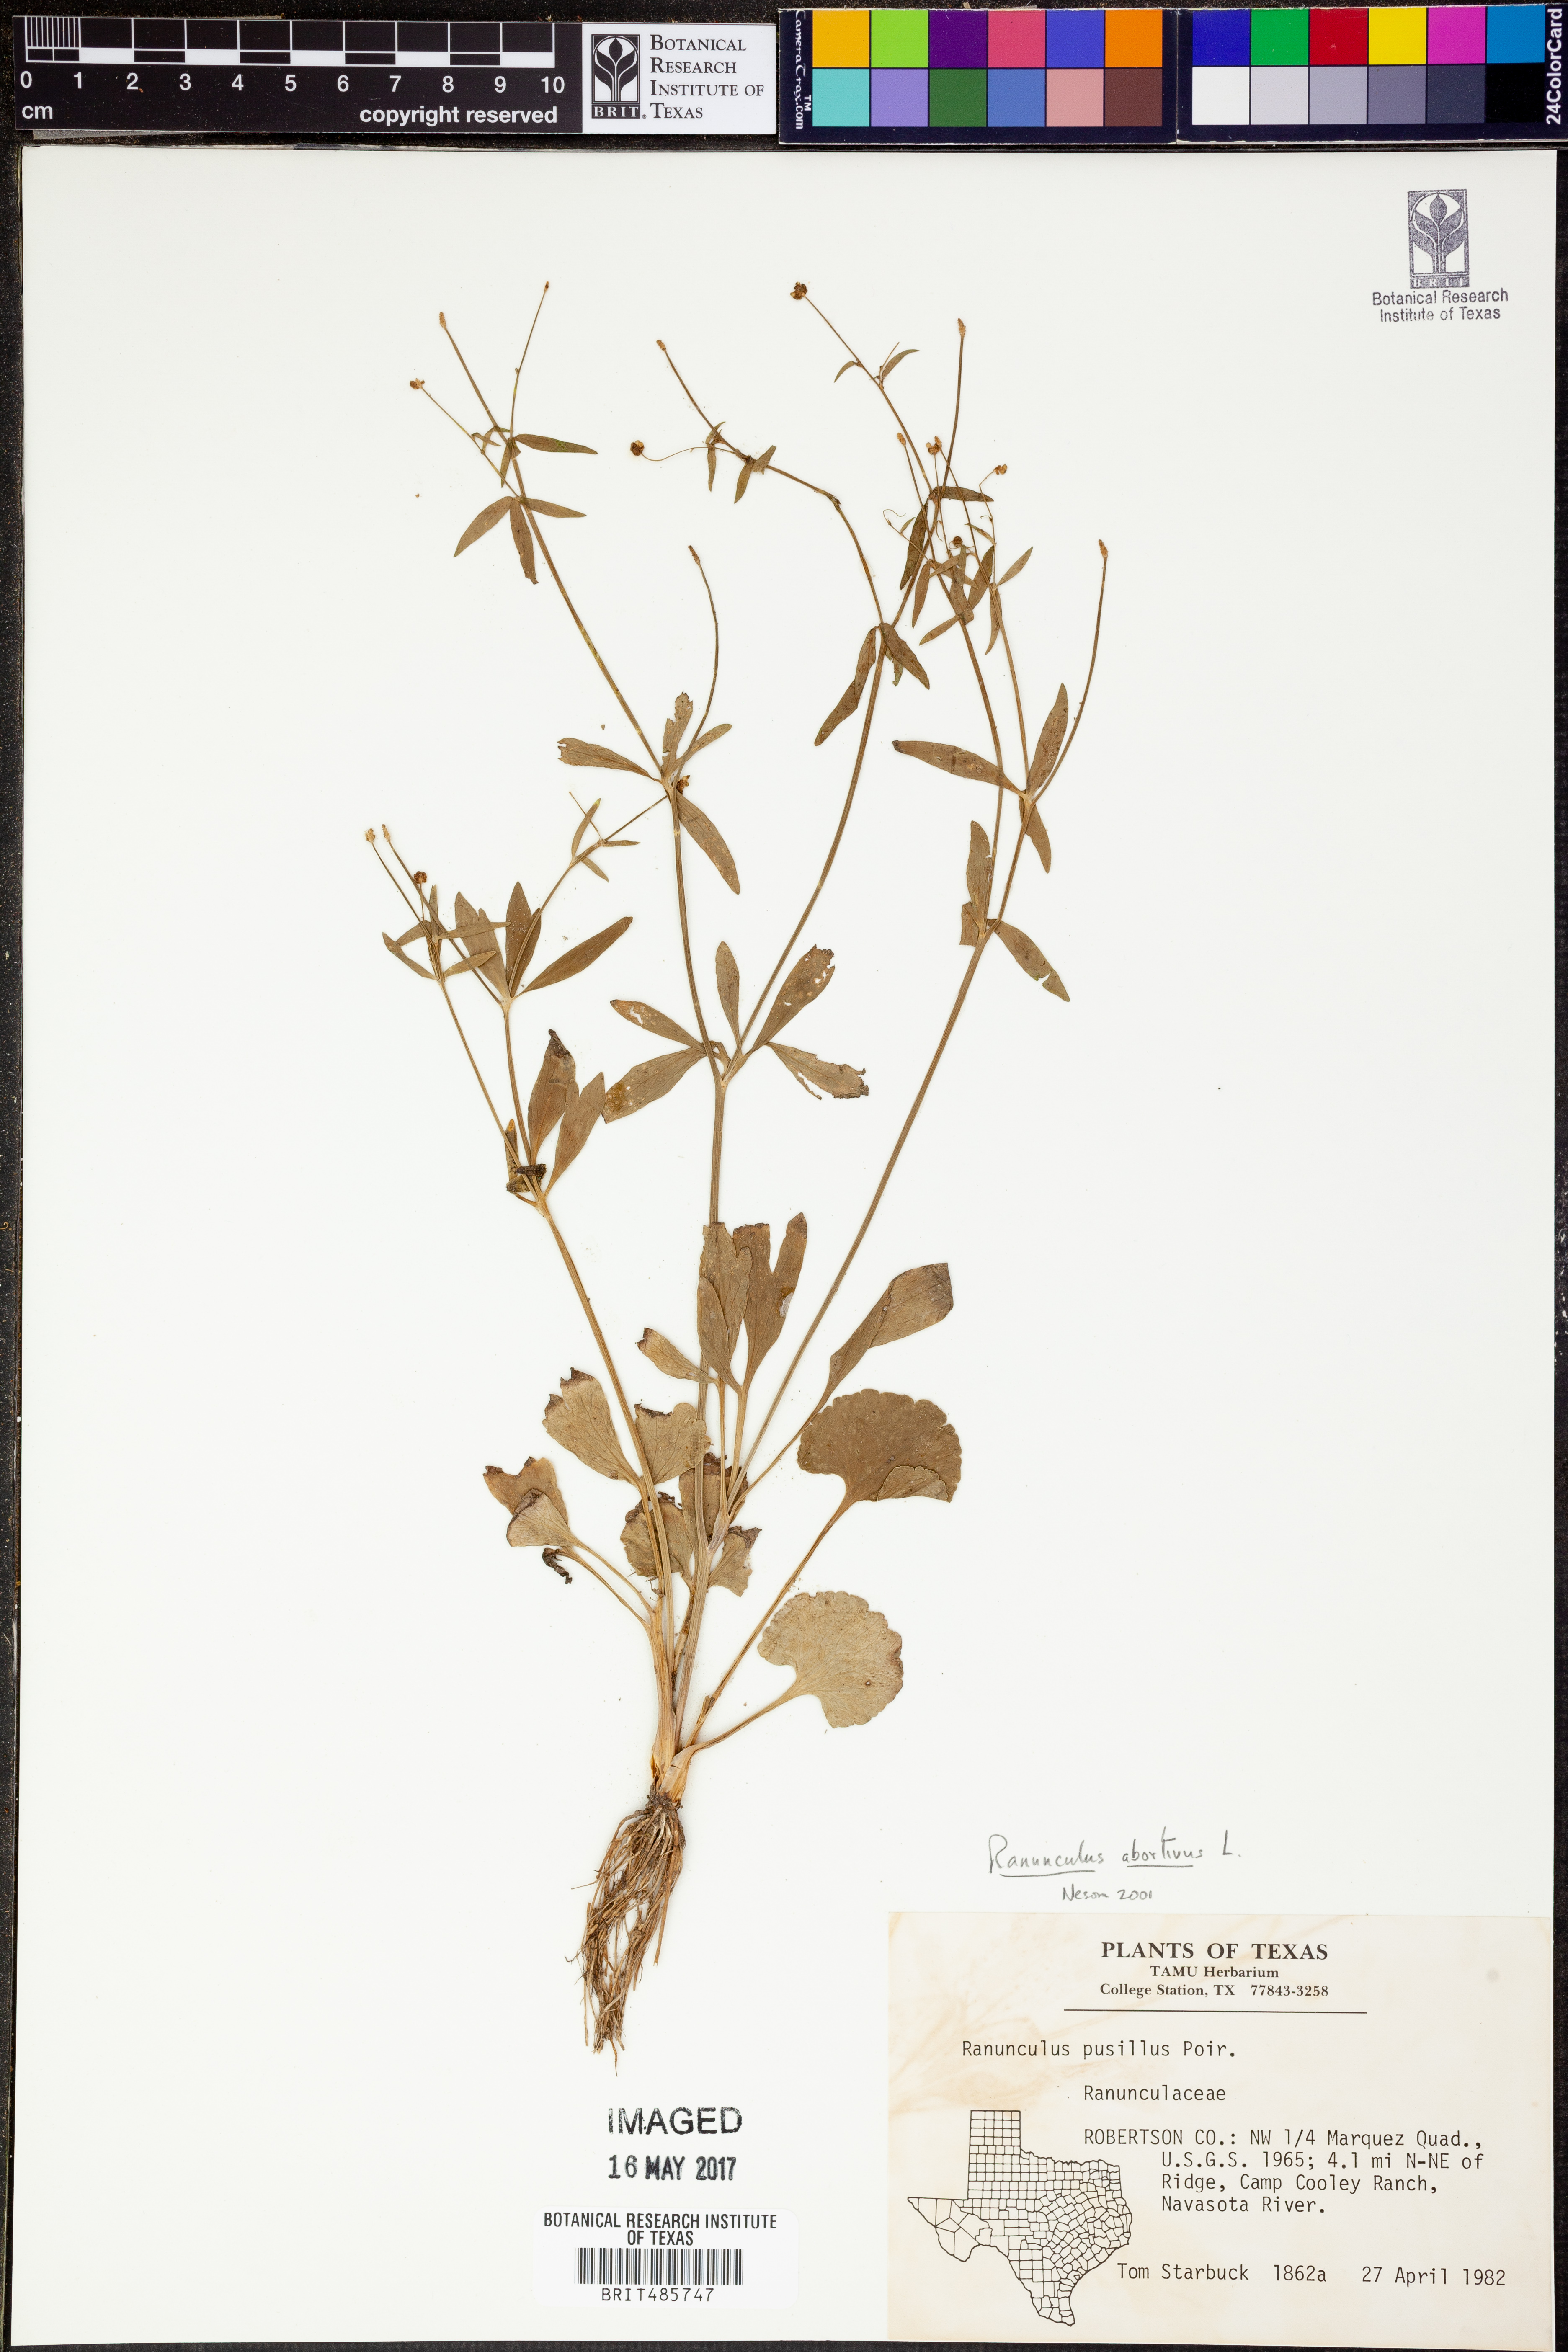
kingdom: Plantae
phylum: Tracheophyta
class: Magnoliopsida
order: Ranunculales
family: Ranunculaceae
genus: Ranunculus
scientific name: Ranunculus abortivus
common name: Early wood buttercup
